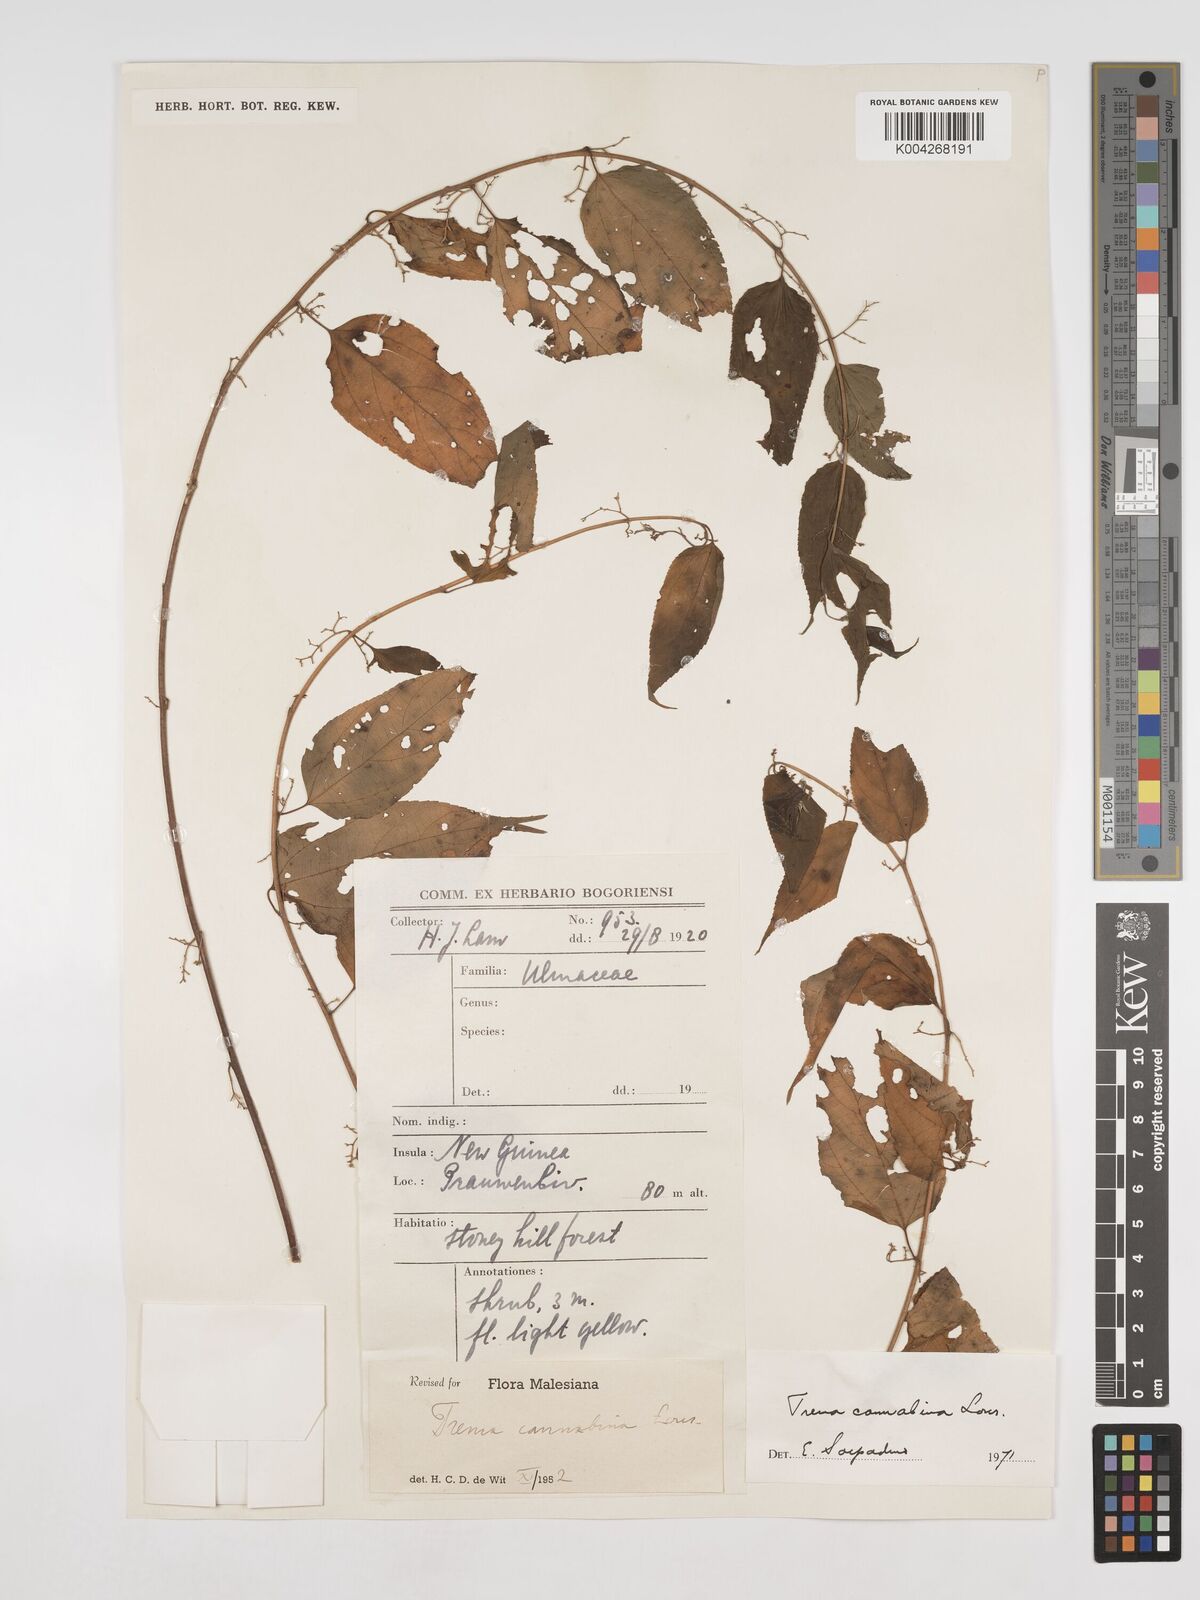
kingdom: Plantae
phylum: Tracheophyta
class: Magnoliopsida
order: Rosales
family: Cannabaceae
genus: Trema
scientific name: Trema
